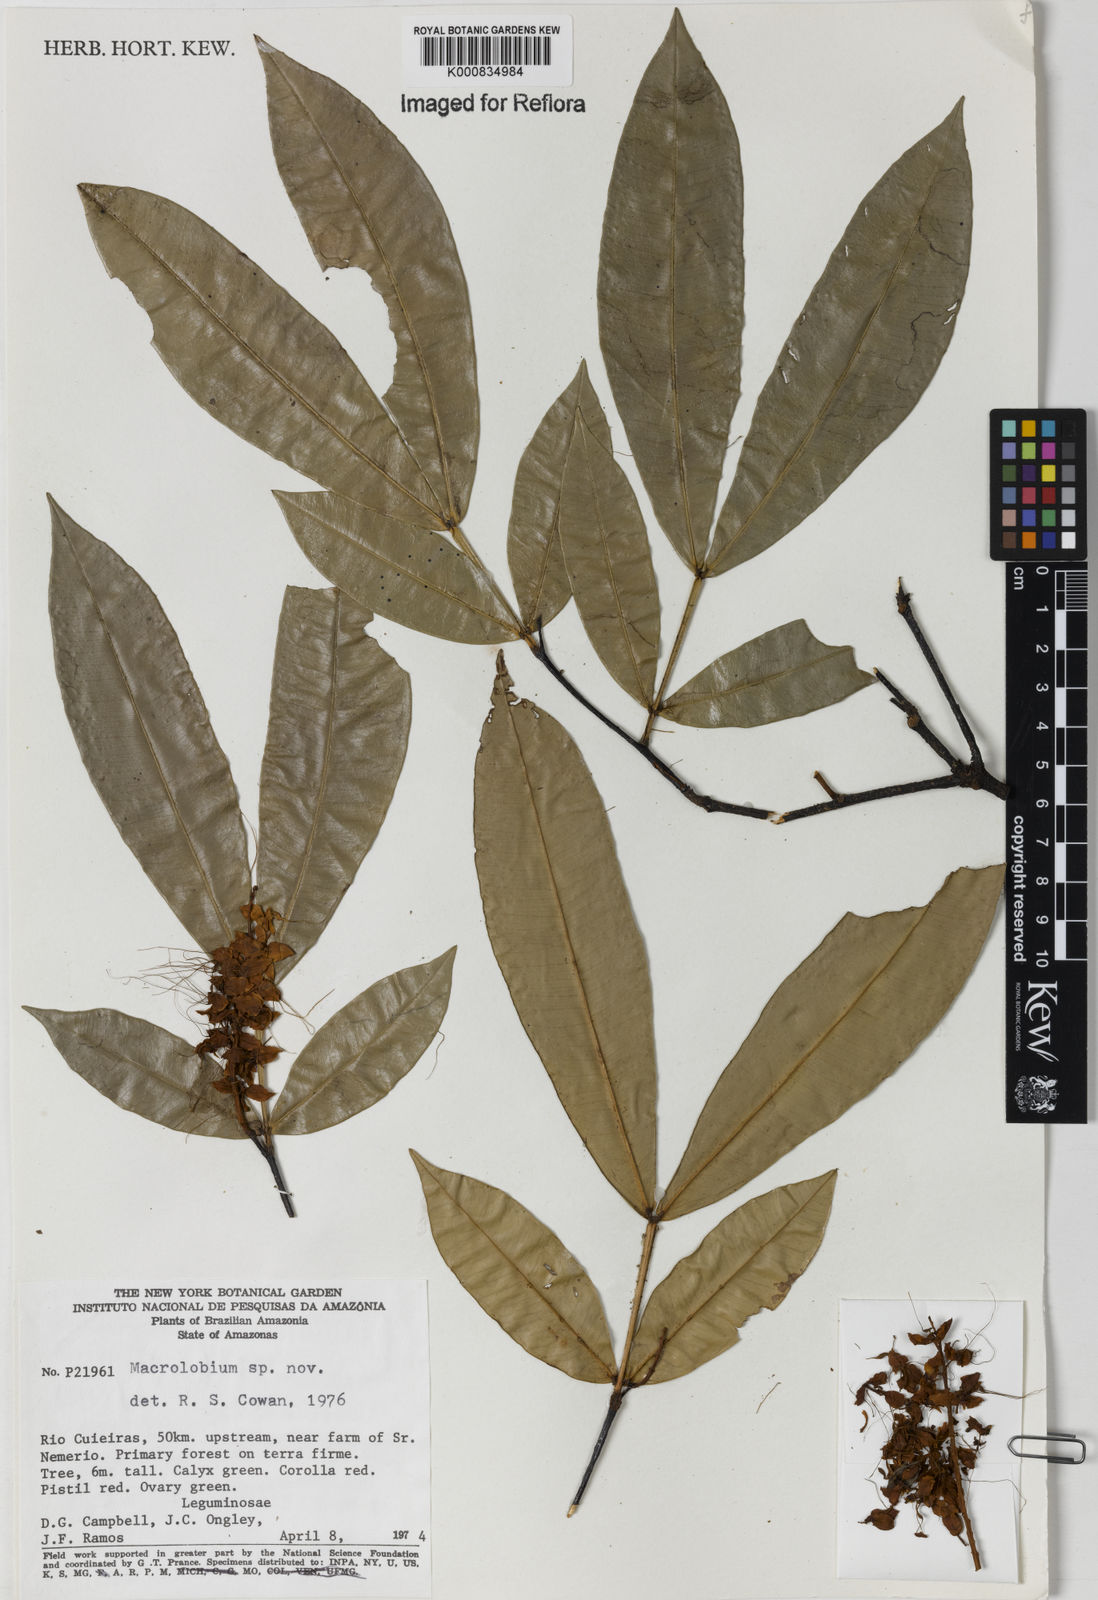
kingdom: Plantae
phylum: Tracheophyta
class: Magnoliopsida
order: Fabales
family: Fabaceae
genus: Macrolobium
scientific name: Macrolobium
